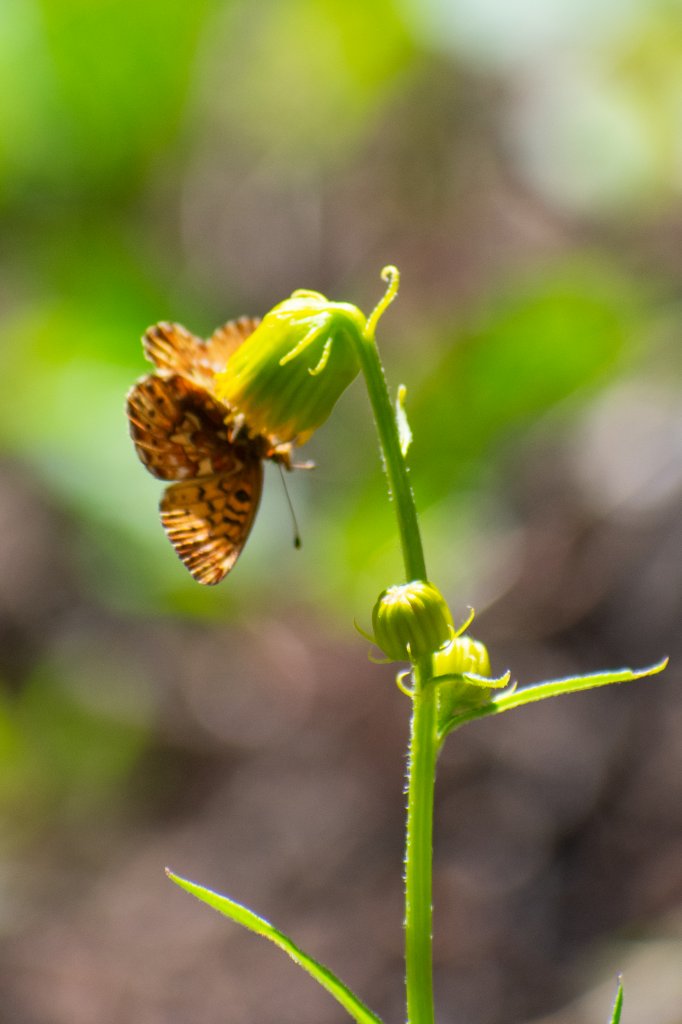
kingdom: Animalia
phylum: Arthropoda
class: Insecta
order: Lepidoptera
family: Nymphalidae
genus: Boloria
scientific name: Boloria chariclea
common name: Arctic Fritillary
